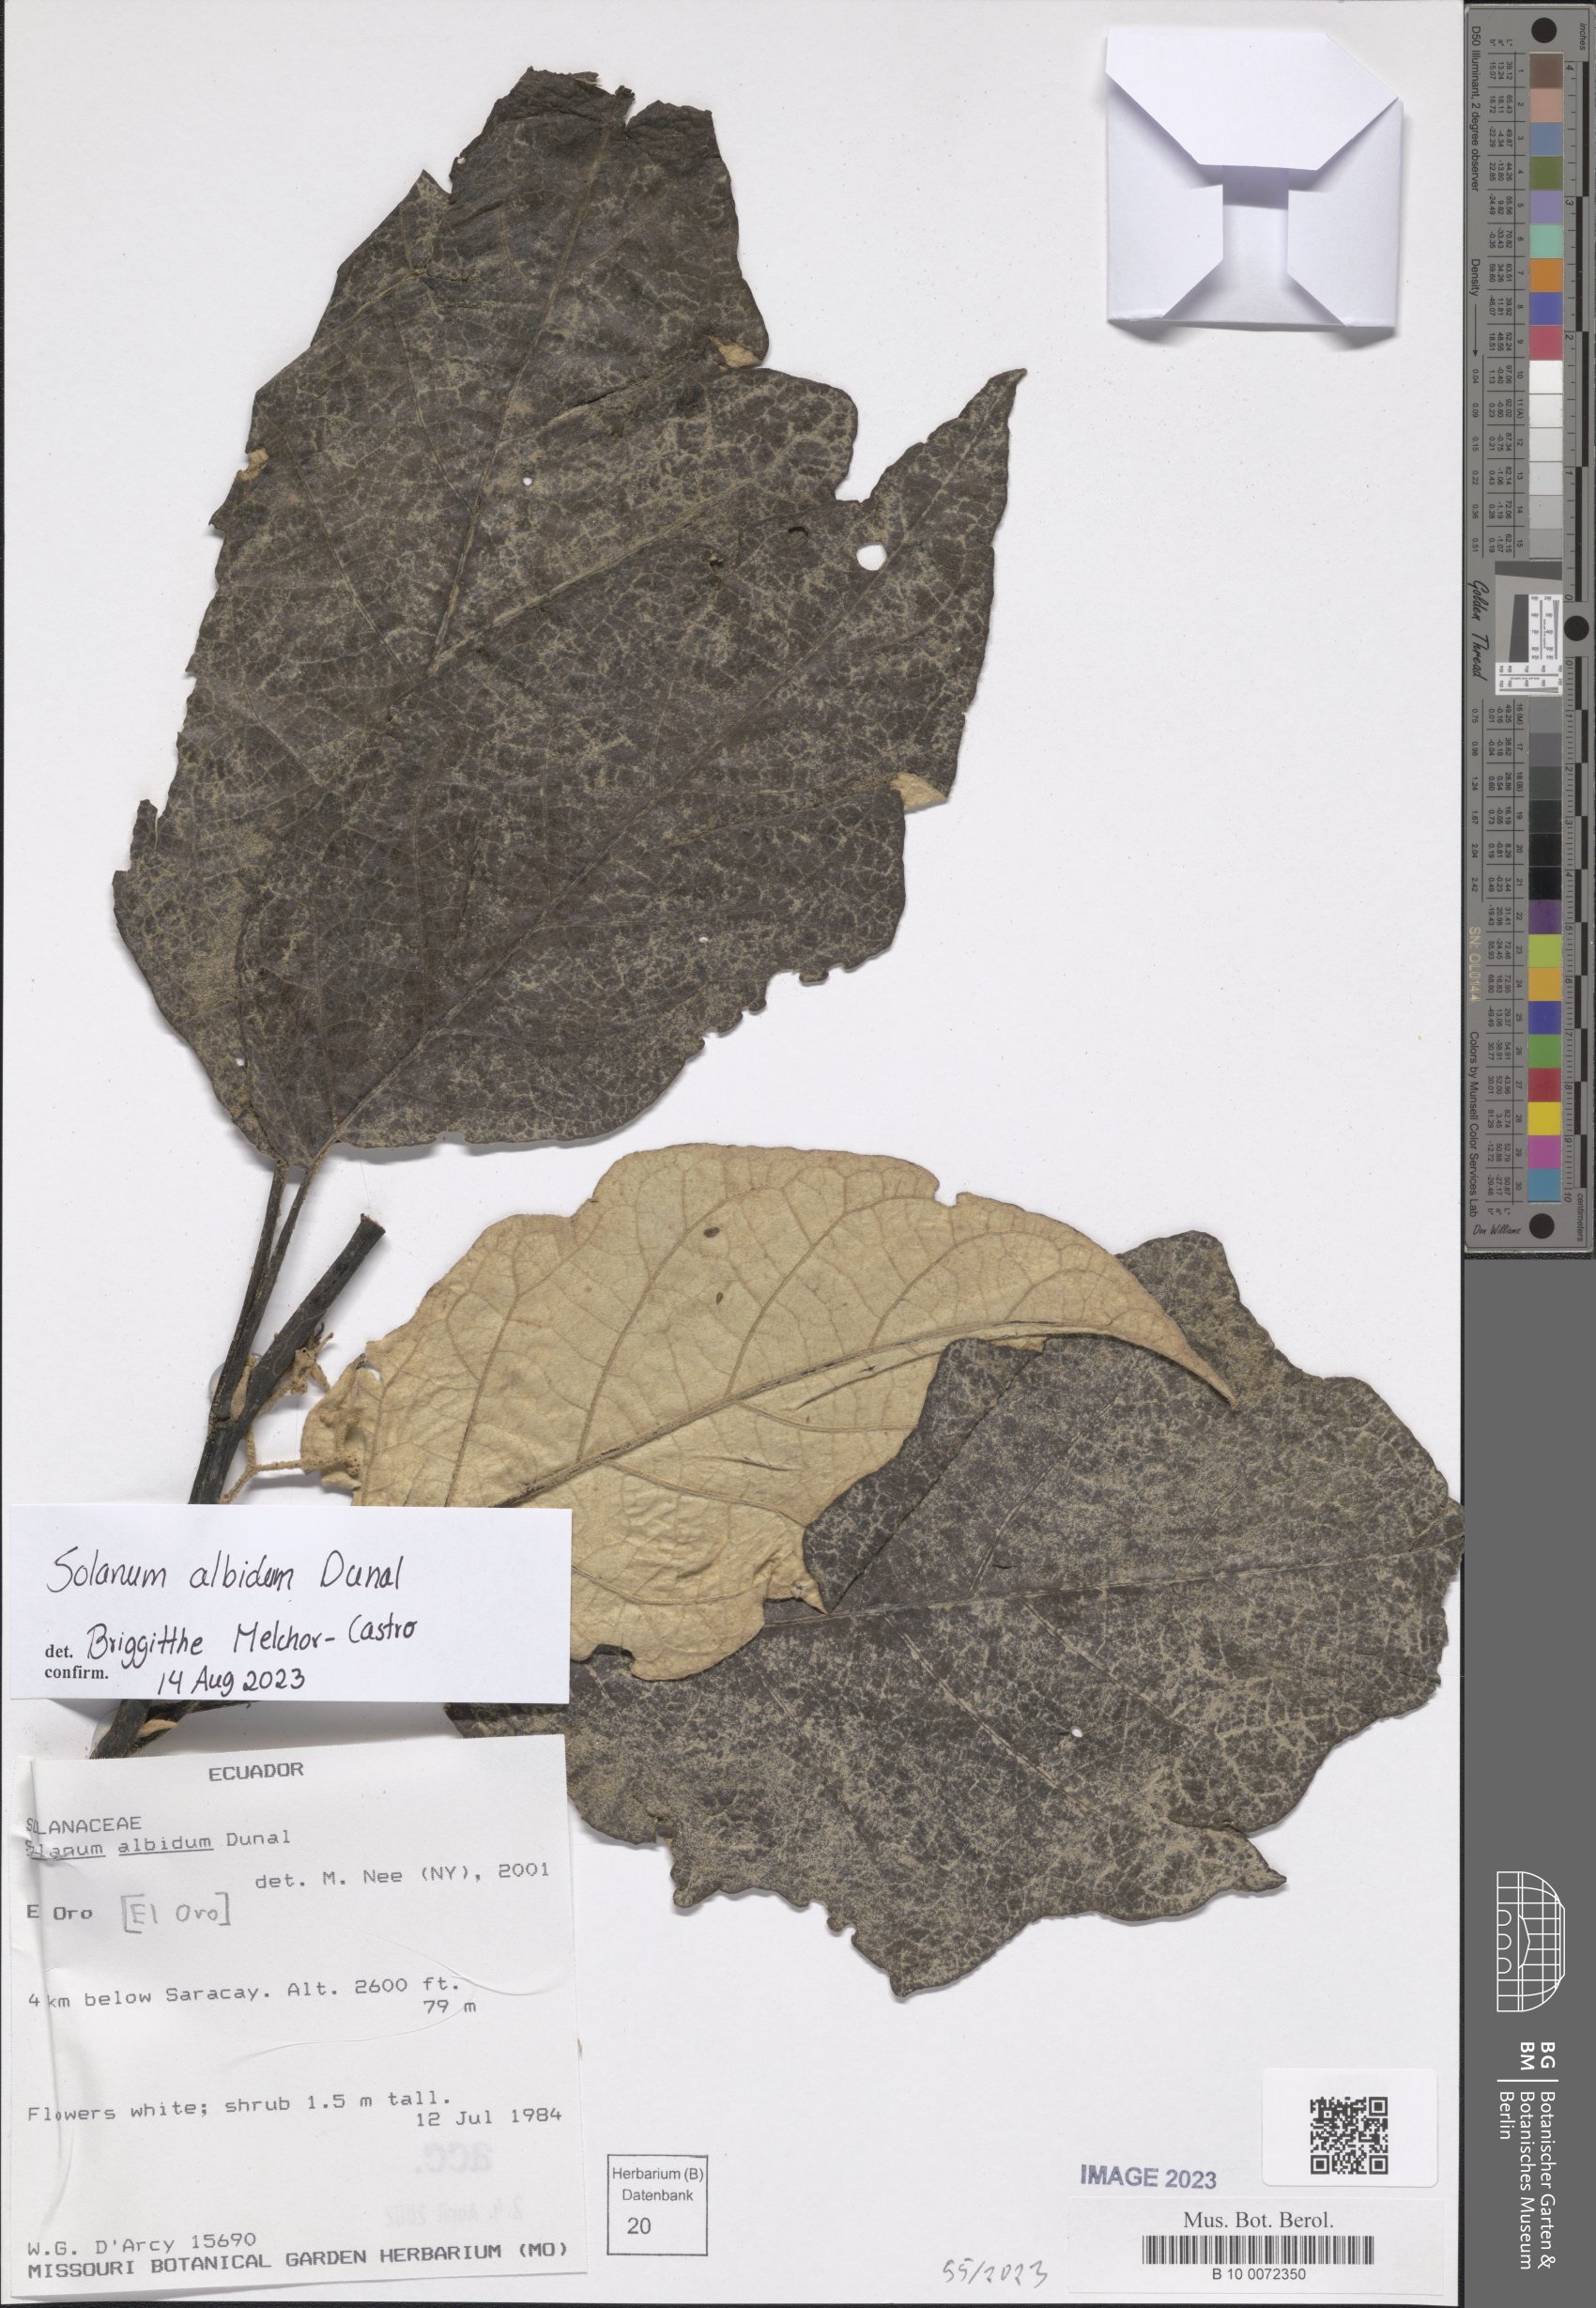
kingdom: Plantae
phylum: Tracheophyta
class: Magnoliopsida
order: Solanales
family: Solanaceae
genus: Solanum
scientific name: Solanum albidum
